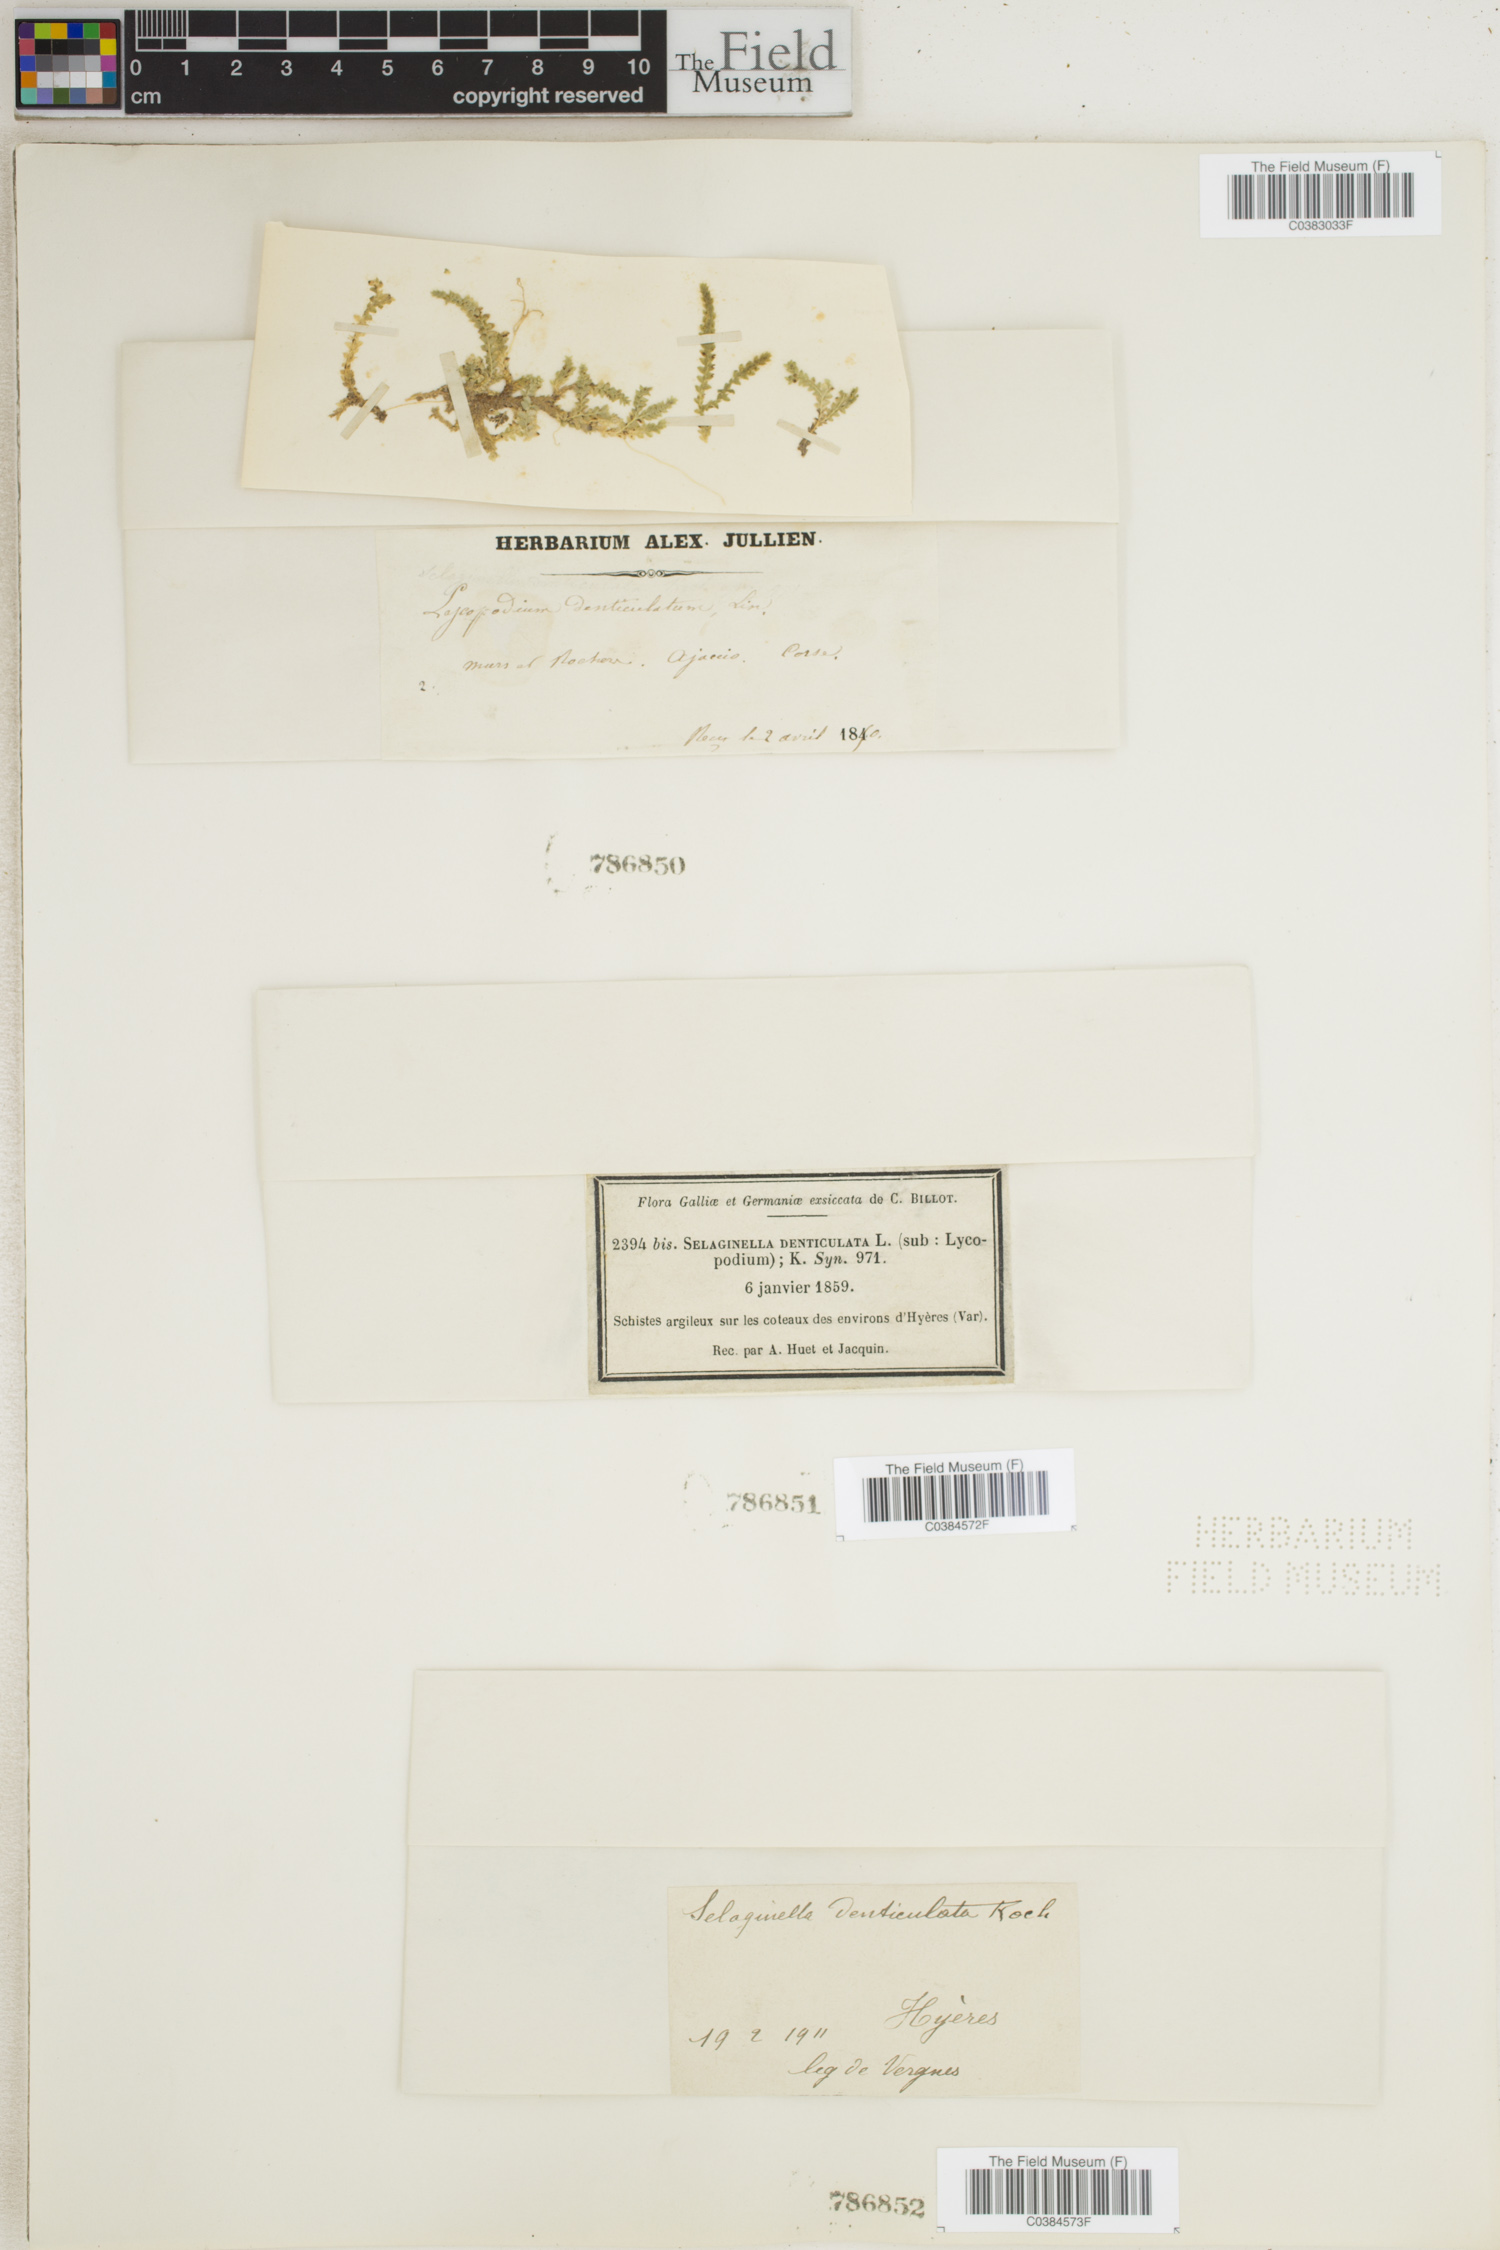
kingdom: Plantae
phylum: Tracheophyta
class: Lycopodiopsida
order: Selaginellales
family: Selaginellaceae
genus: Selaginella
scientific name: Selaginella denticulata
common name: Toothed-leaved clubmoss
